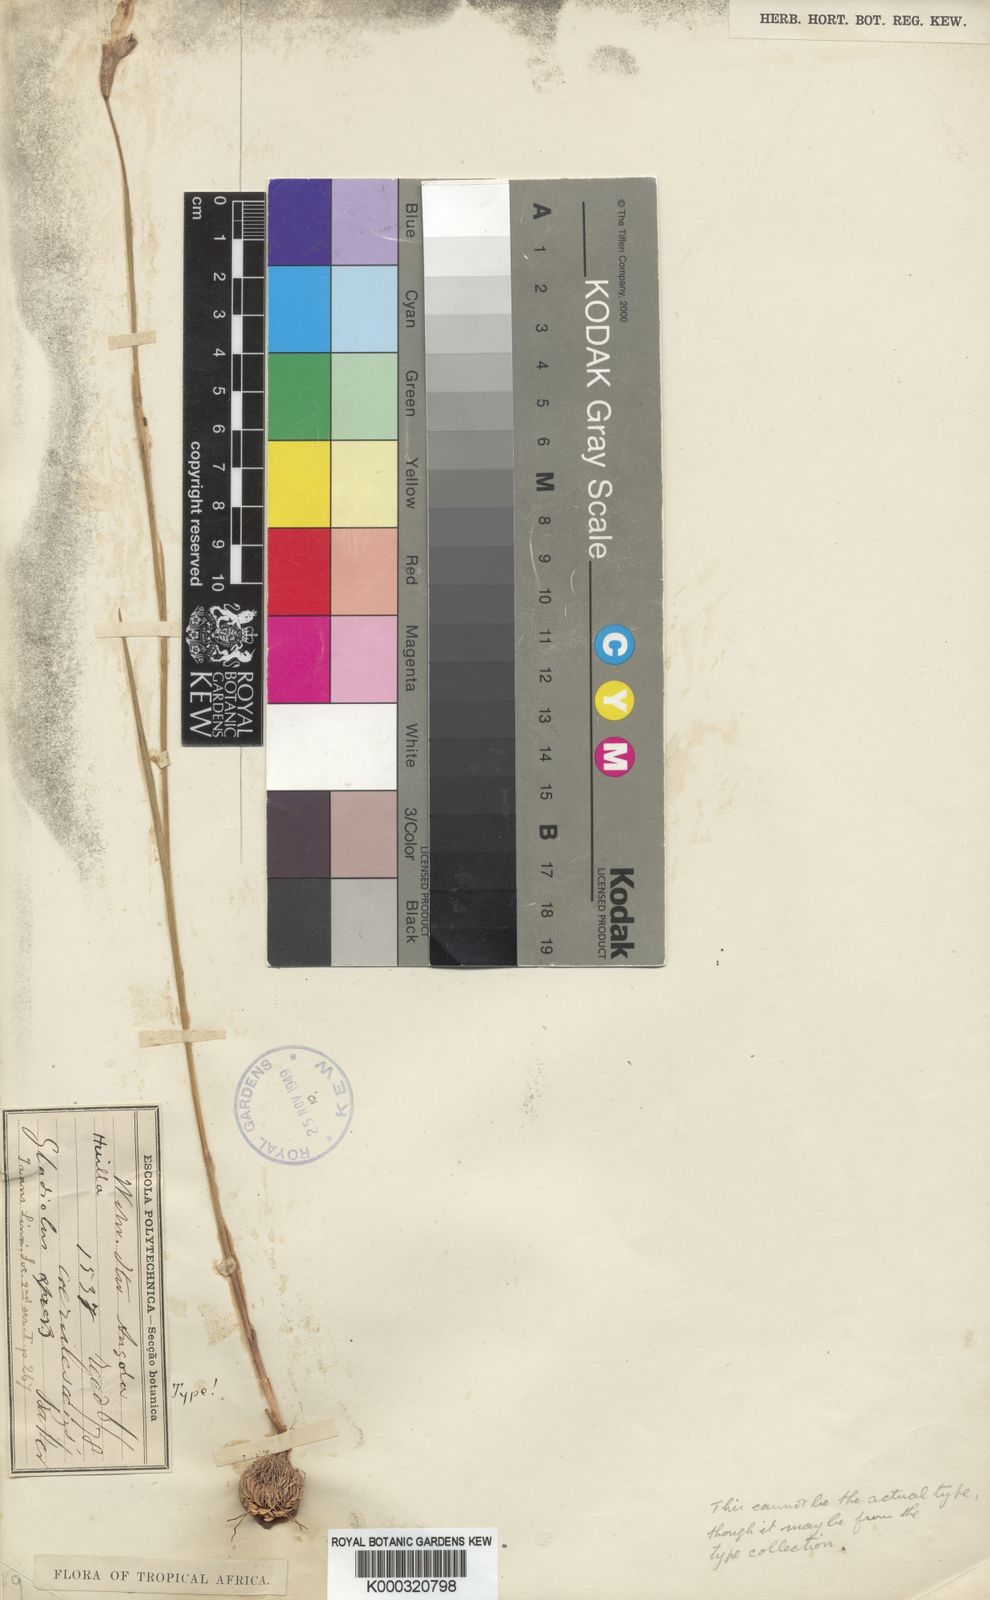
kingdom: Plantae
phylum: Tracheophyta
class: Liliopsida
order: Asparagales
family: Iridaceae
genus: Gladiolus
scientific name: Gladiolus atropurpureus
